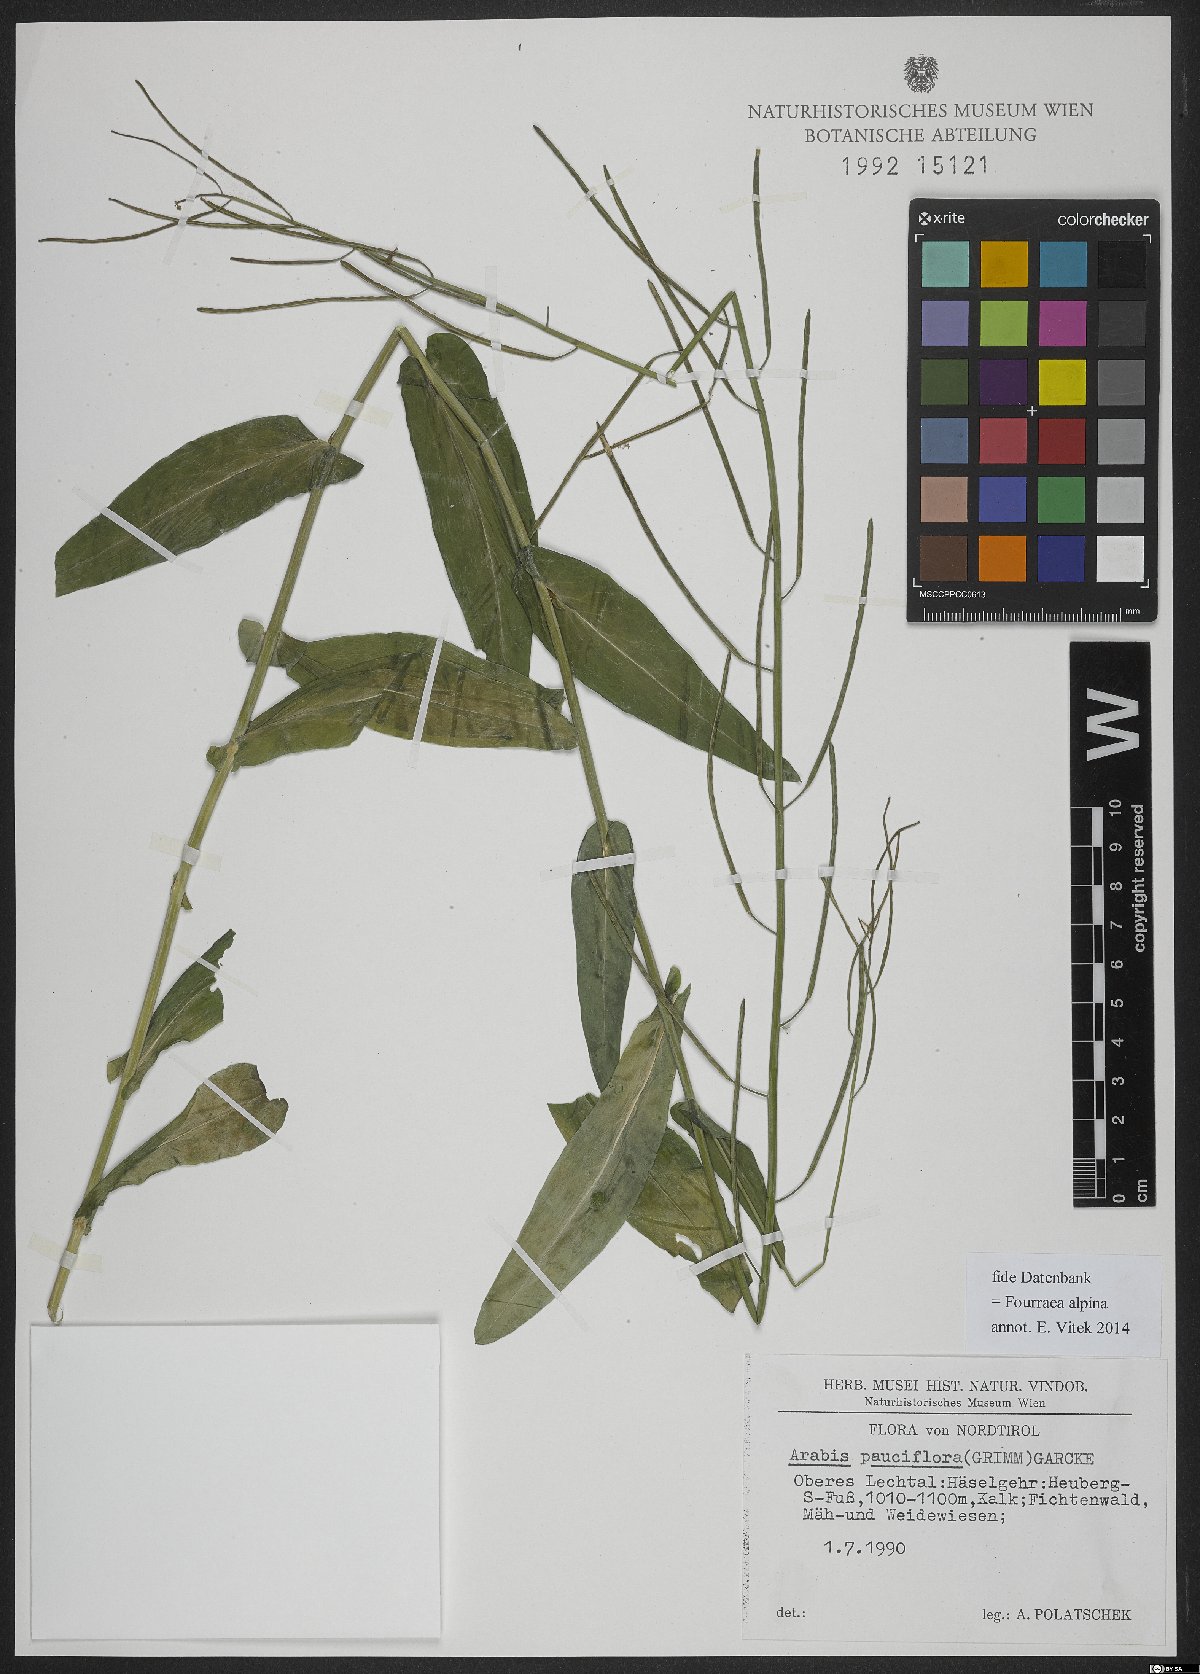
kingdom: Plantae
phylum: Tracheophyta
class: Magnoliopsida
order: Brassicales
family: Brassicaceae
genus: Fourraea
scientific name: Fourraea alpina
